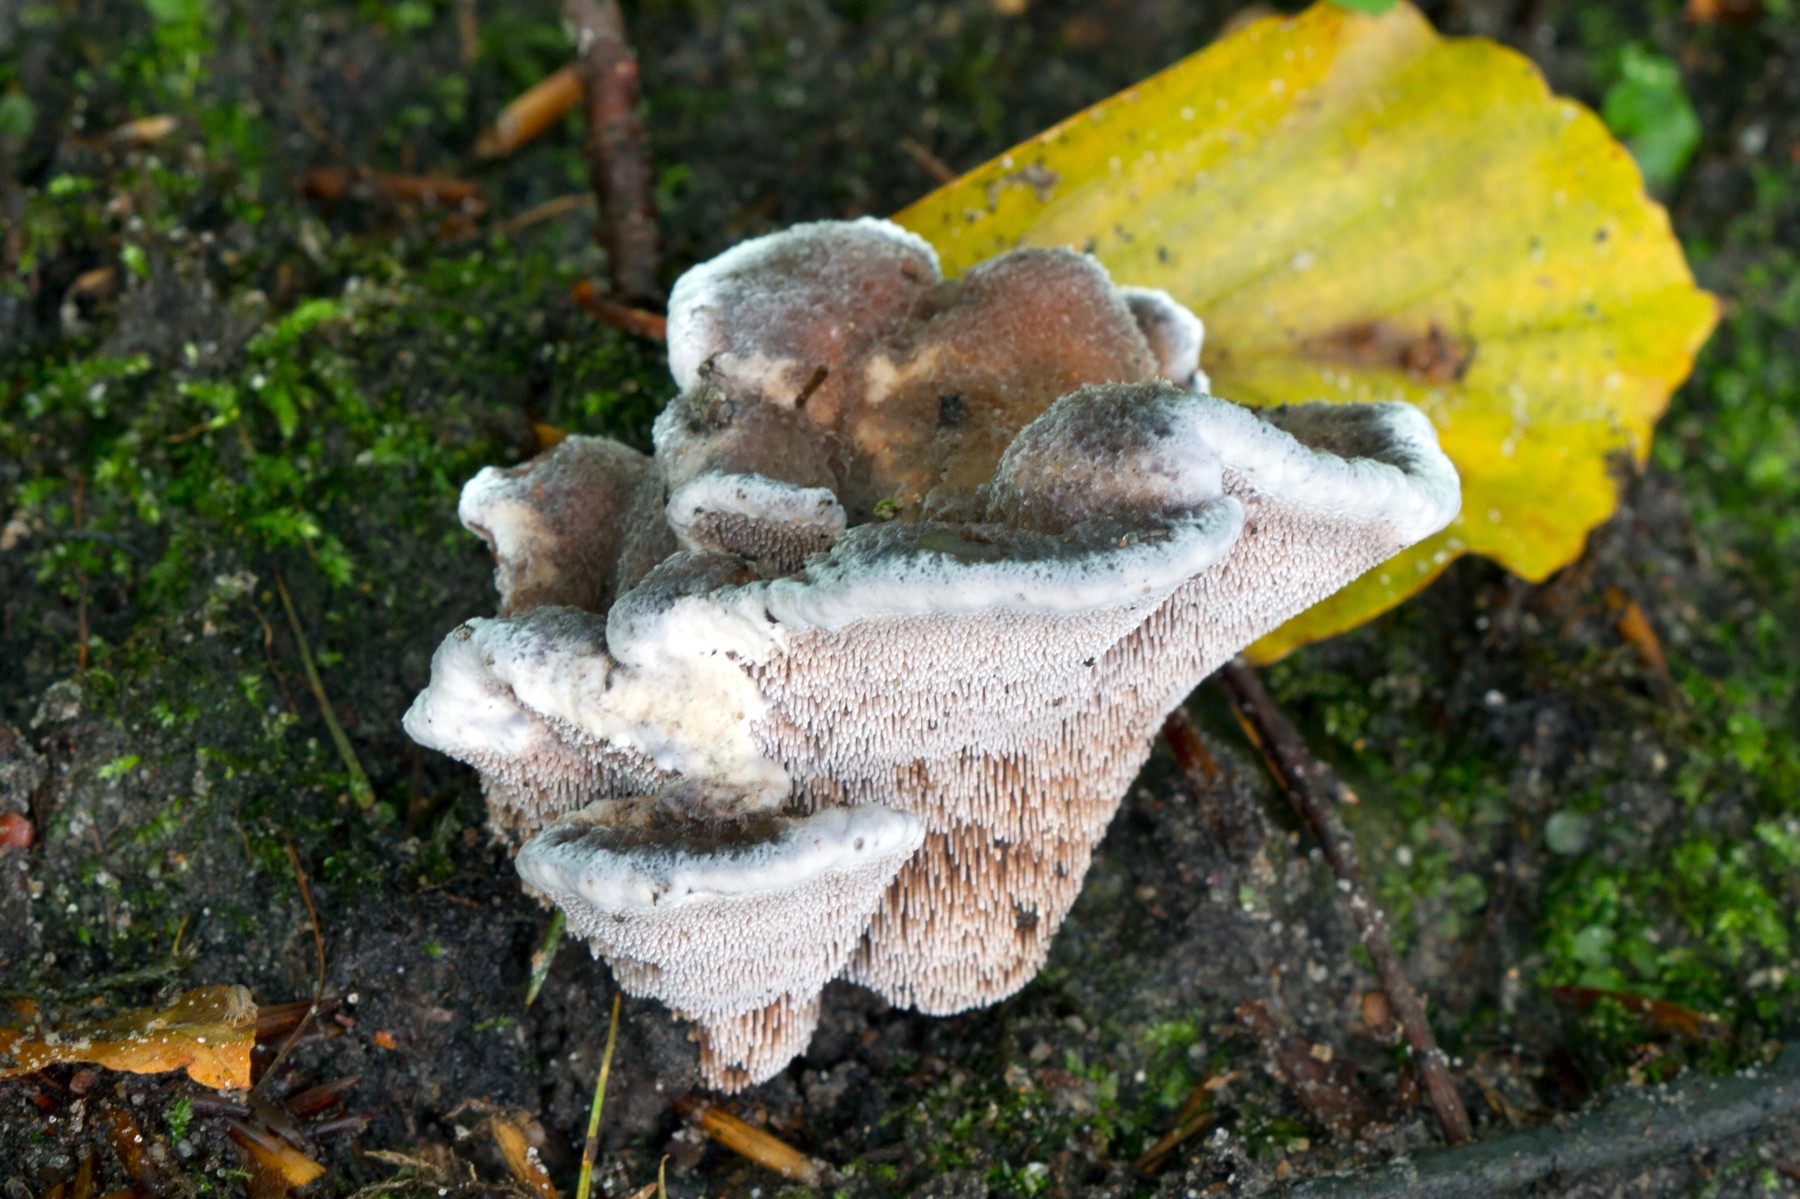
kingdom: Fungi
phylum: Basidiomycota
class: Agaricomycetes
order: Thelephorales
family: Bankeraceae
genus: Hydnellum
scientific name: Hydnellum caeruleum
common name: blålig korkpigsvamp
